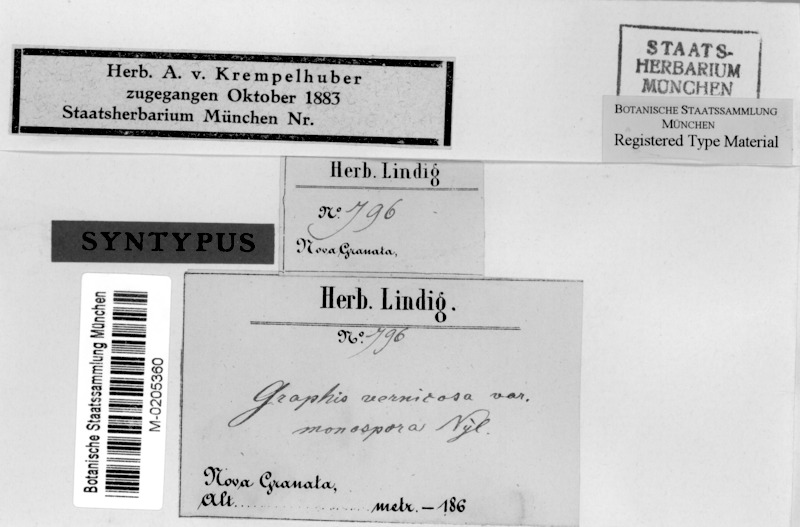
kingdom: Fungi
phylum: Ascomycota
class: Lecanoromycetes
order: Ostropales
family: Graphidaceae
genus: Allographa
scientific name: Allographa vernicosa
